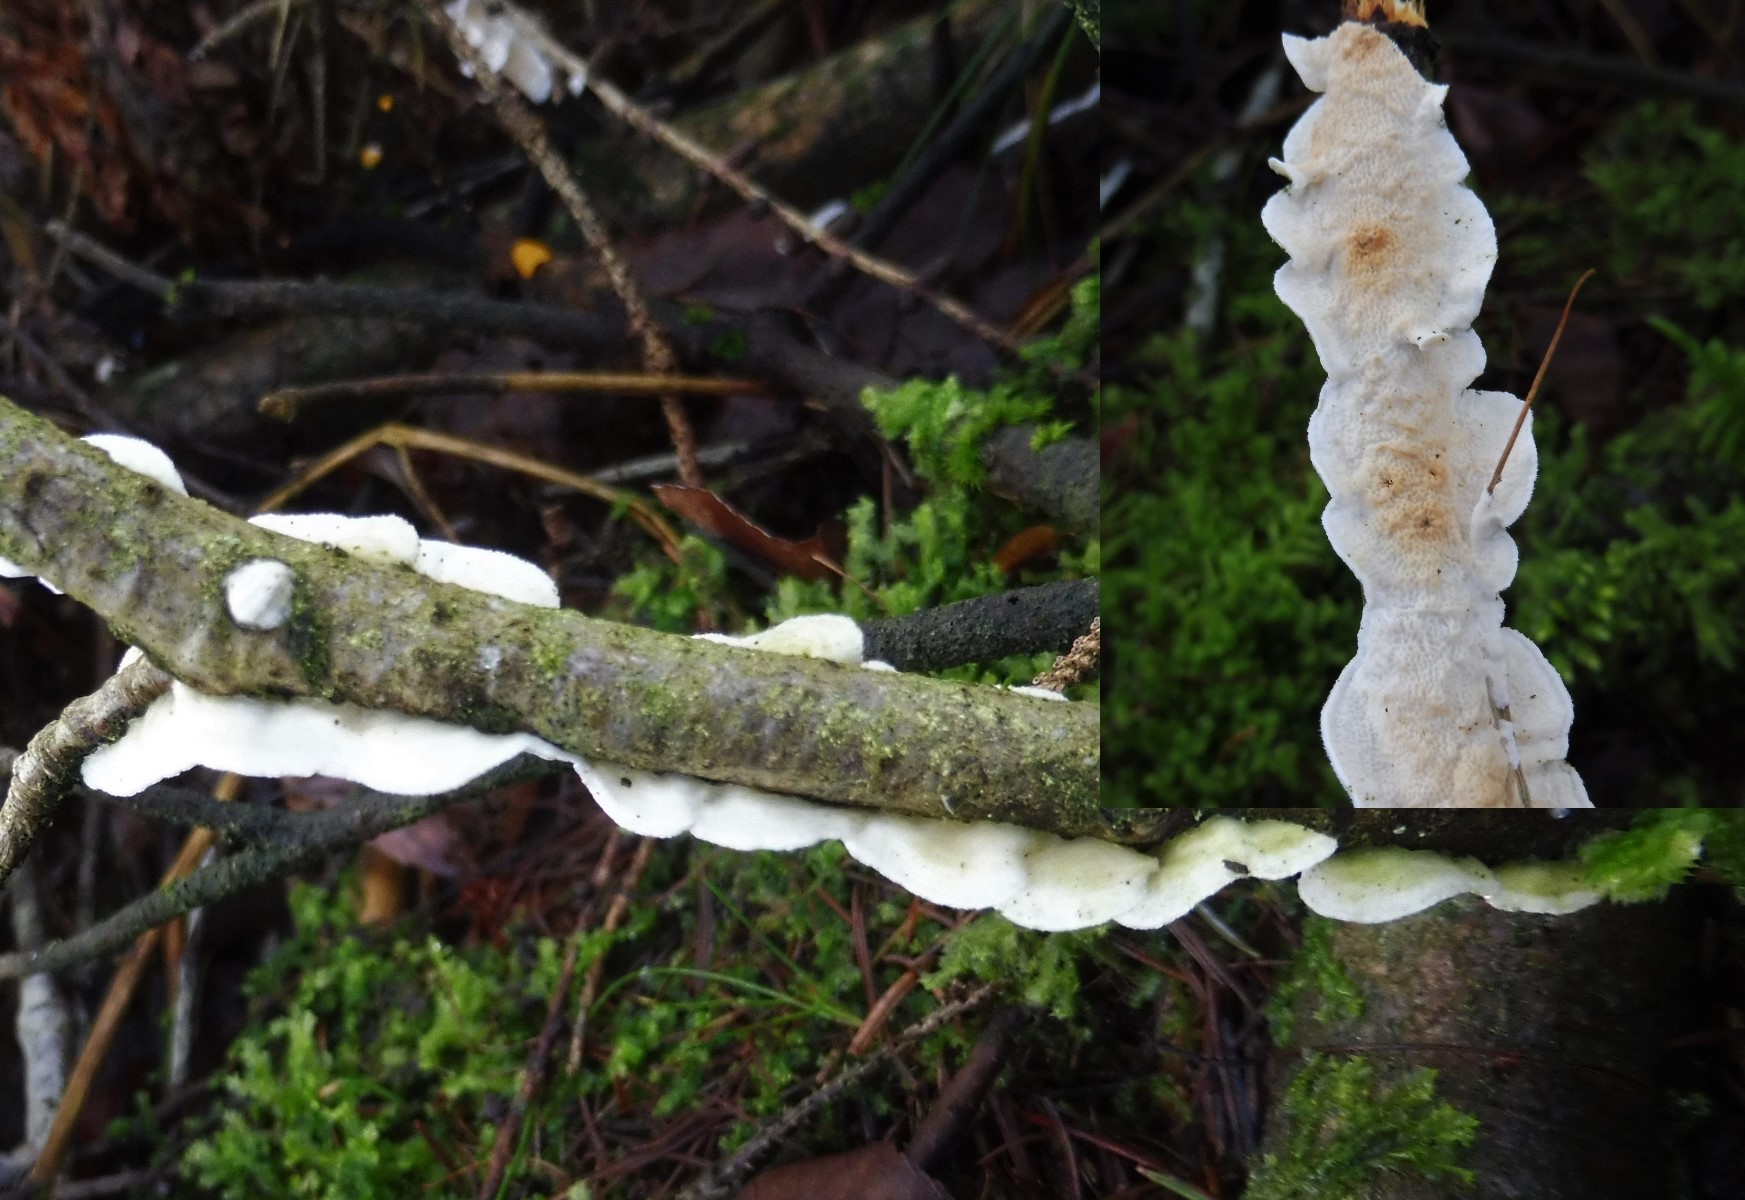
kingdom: Fungi
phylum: Basidiomycota
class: Agaricomycetes
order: Polyporales
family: Irpicaceae
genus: Byssomerulius
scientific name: Byssomerulius corium
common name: læder-åresvamp
